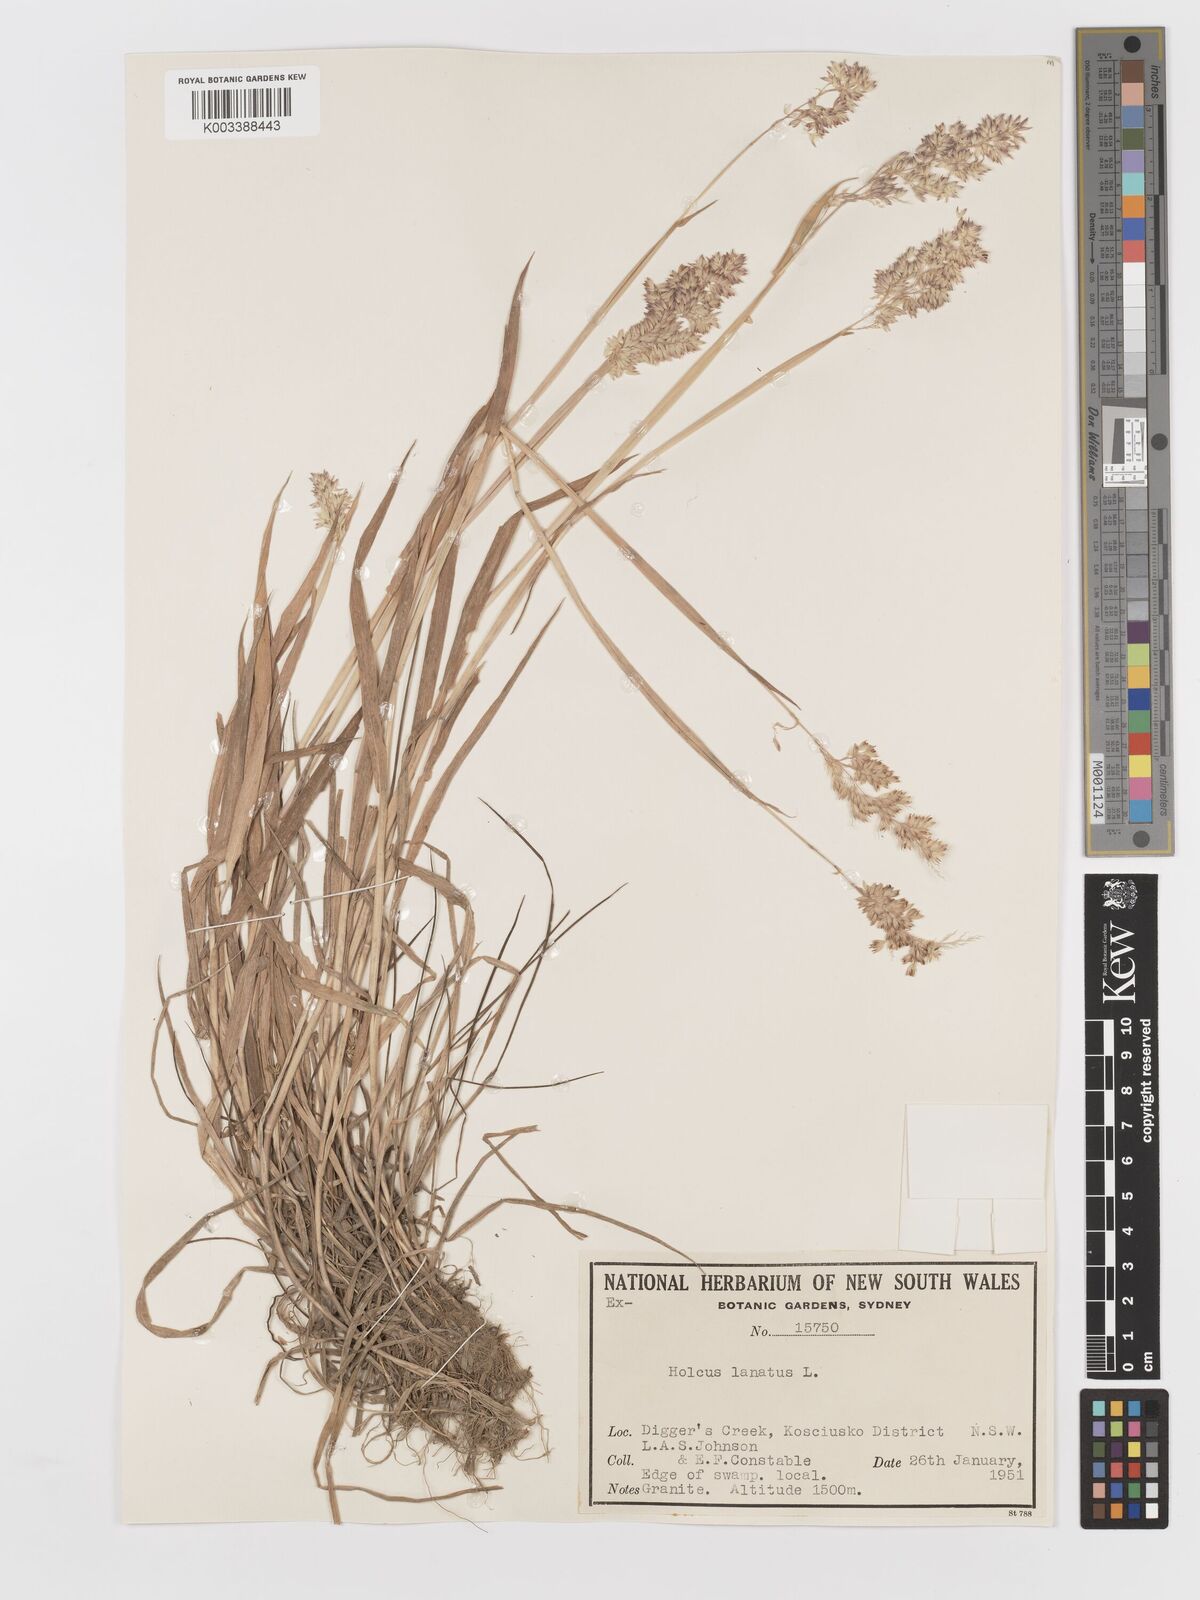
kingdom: Plantae
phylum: Tracheophyta
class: Liliopsida
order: Poales
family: Poaceae
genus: Holcus
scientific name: Holcus lanatus
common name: Yorkshire-fog
